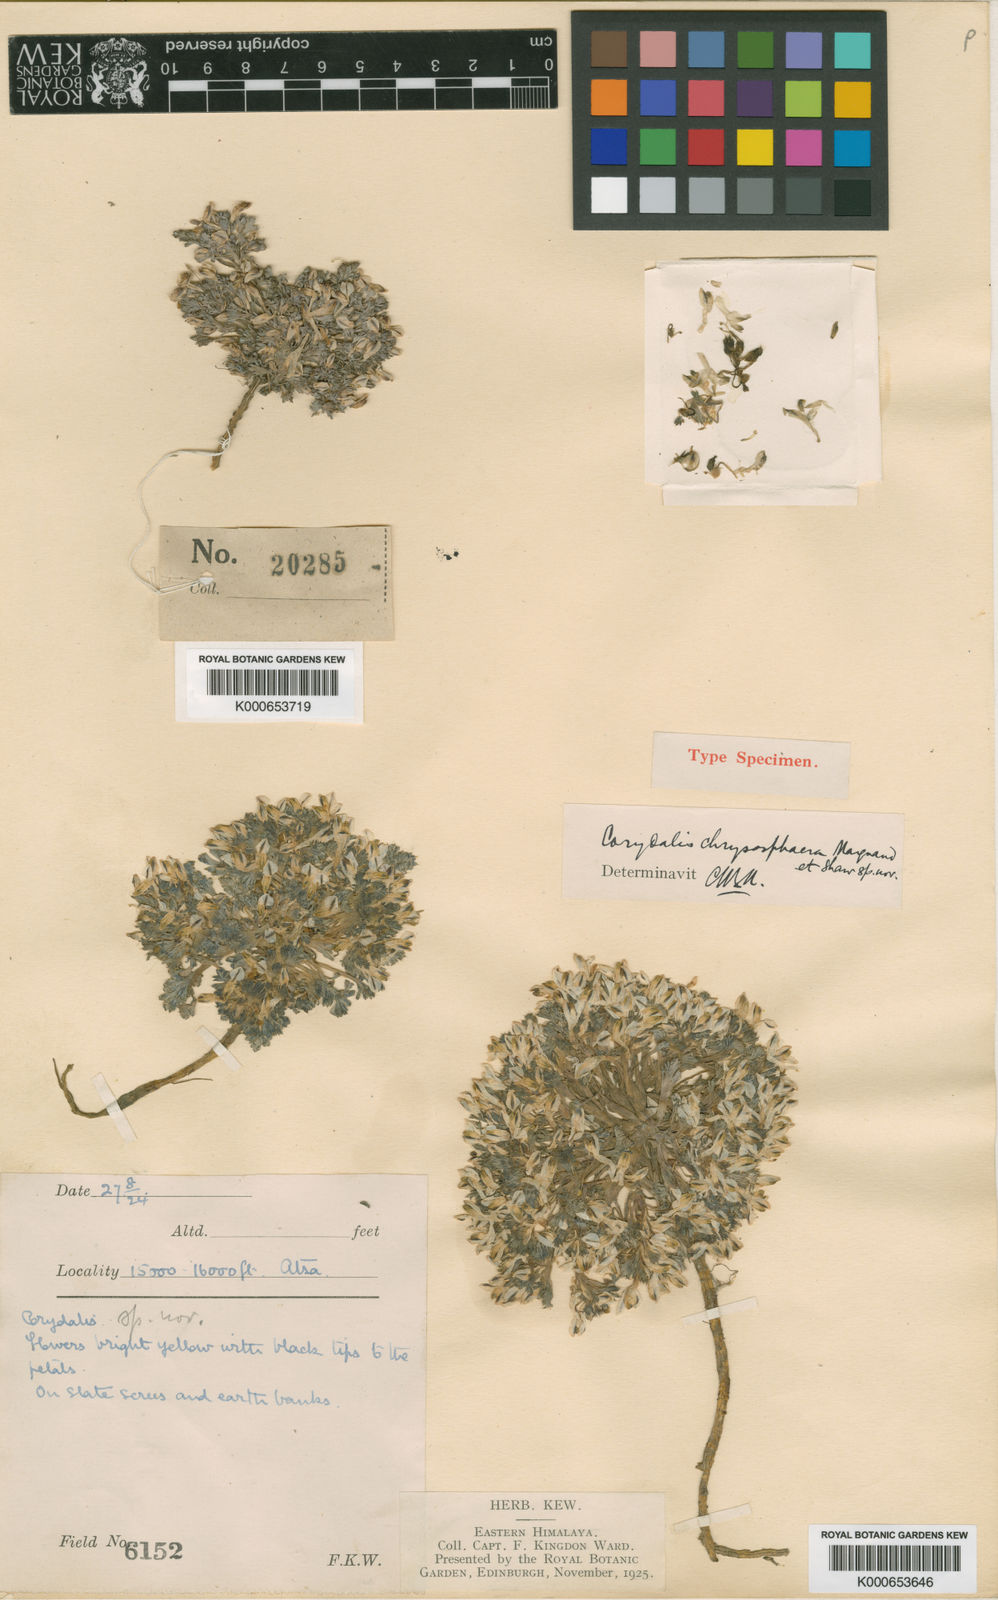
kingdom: Plantae
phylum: Tracheophyta
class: Magnoliopsida
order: Ranunculales
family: Papaveraceae
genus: Corydalis
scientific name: Corydalis chrysosphaera
